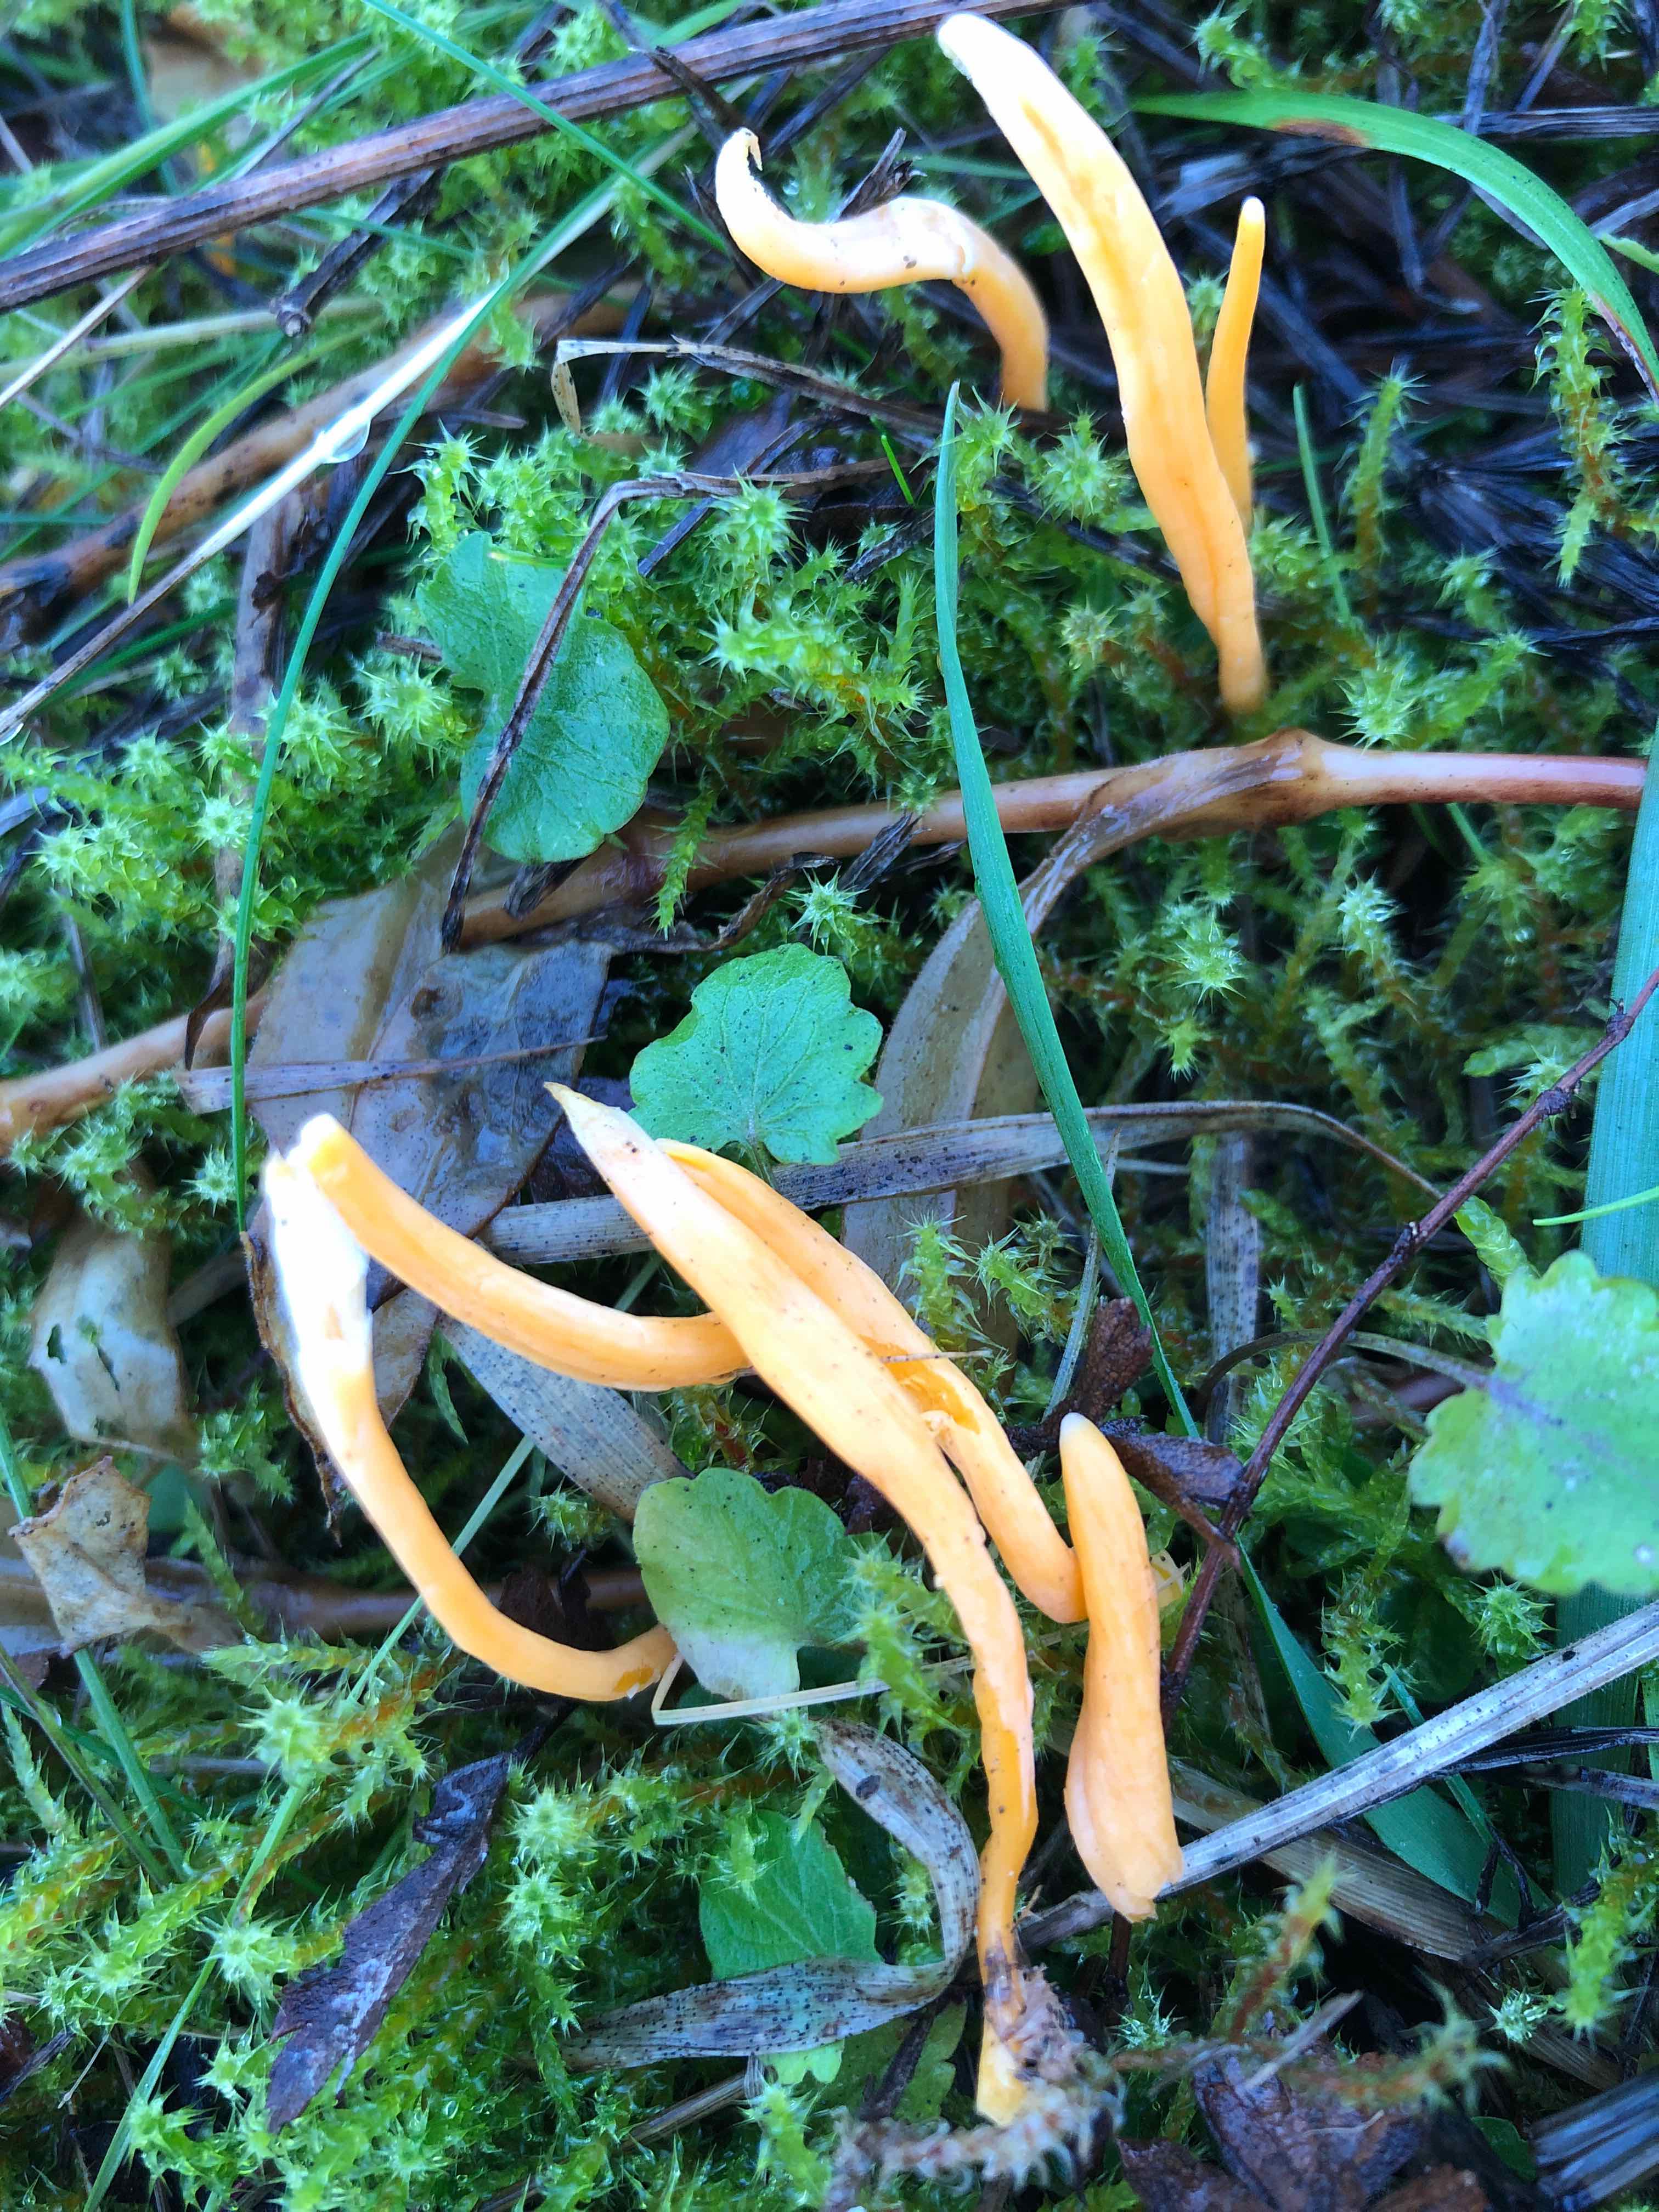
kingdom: Fungi
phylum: Basidiomycota
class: Agaricomycetes
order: Agaricales
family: Clavariaceae
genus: Clavulinopsis
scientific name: Clavulinopsis luteoalba
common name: abrikos-køllesvamp
